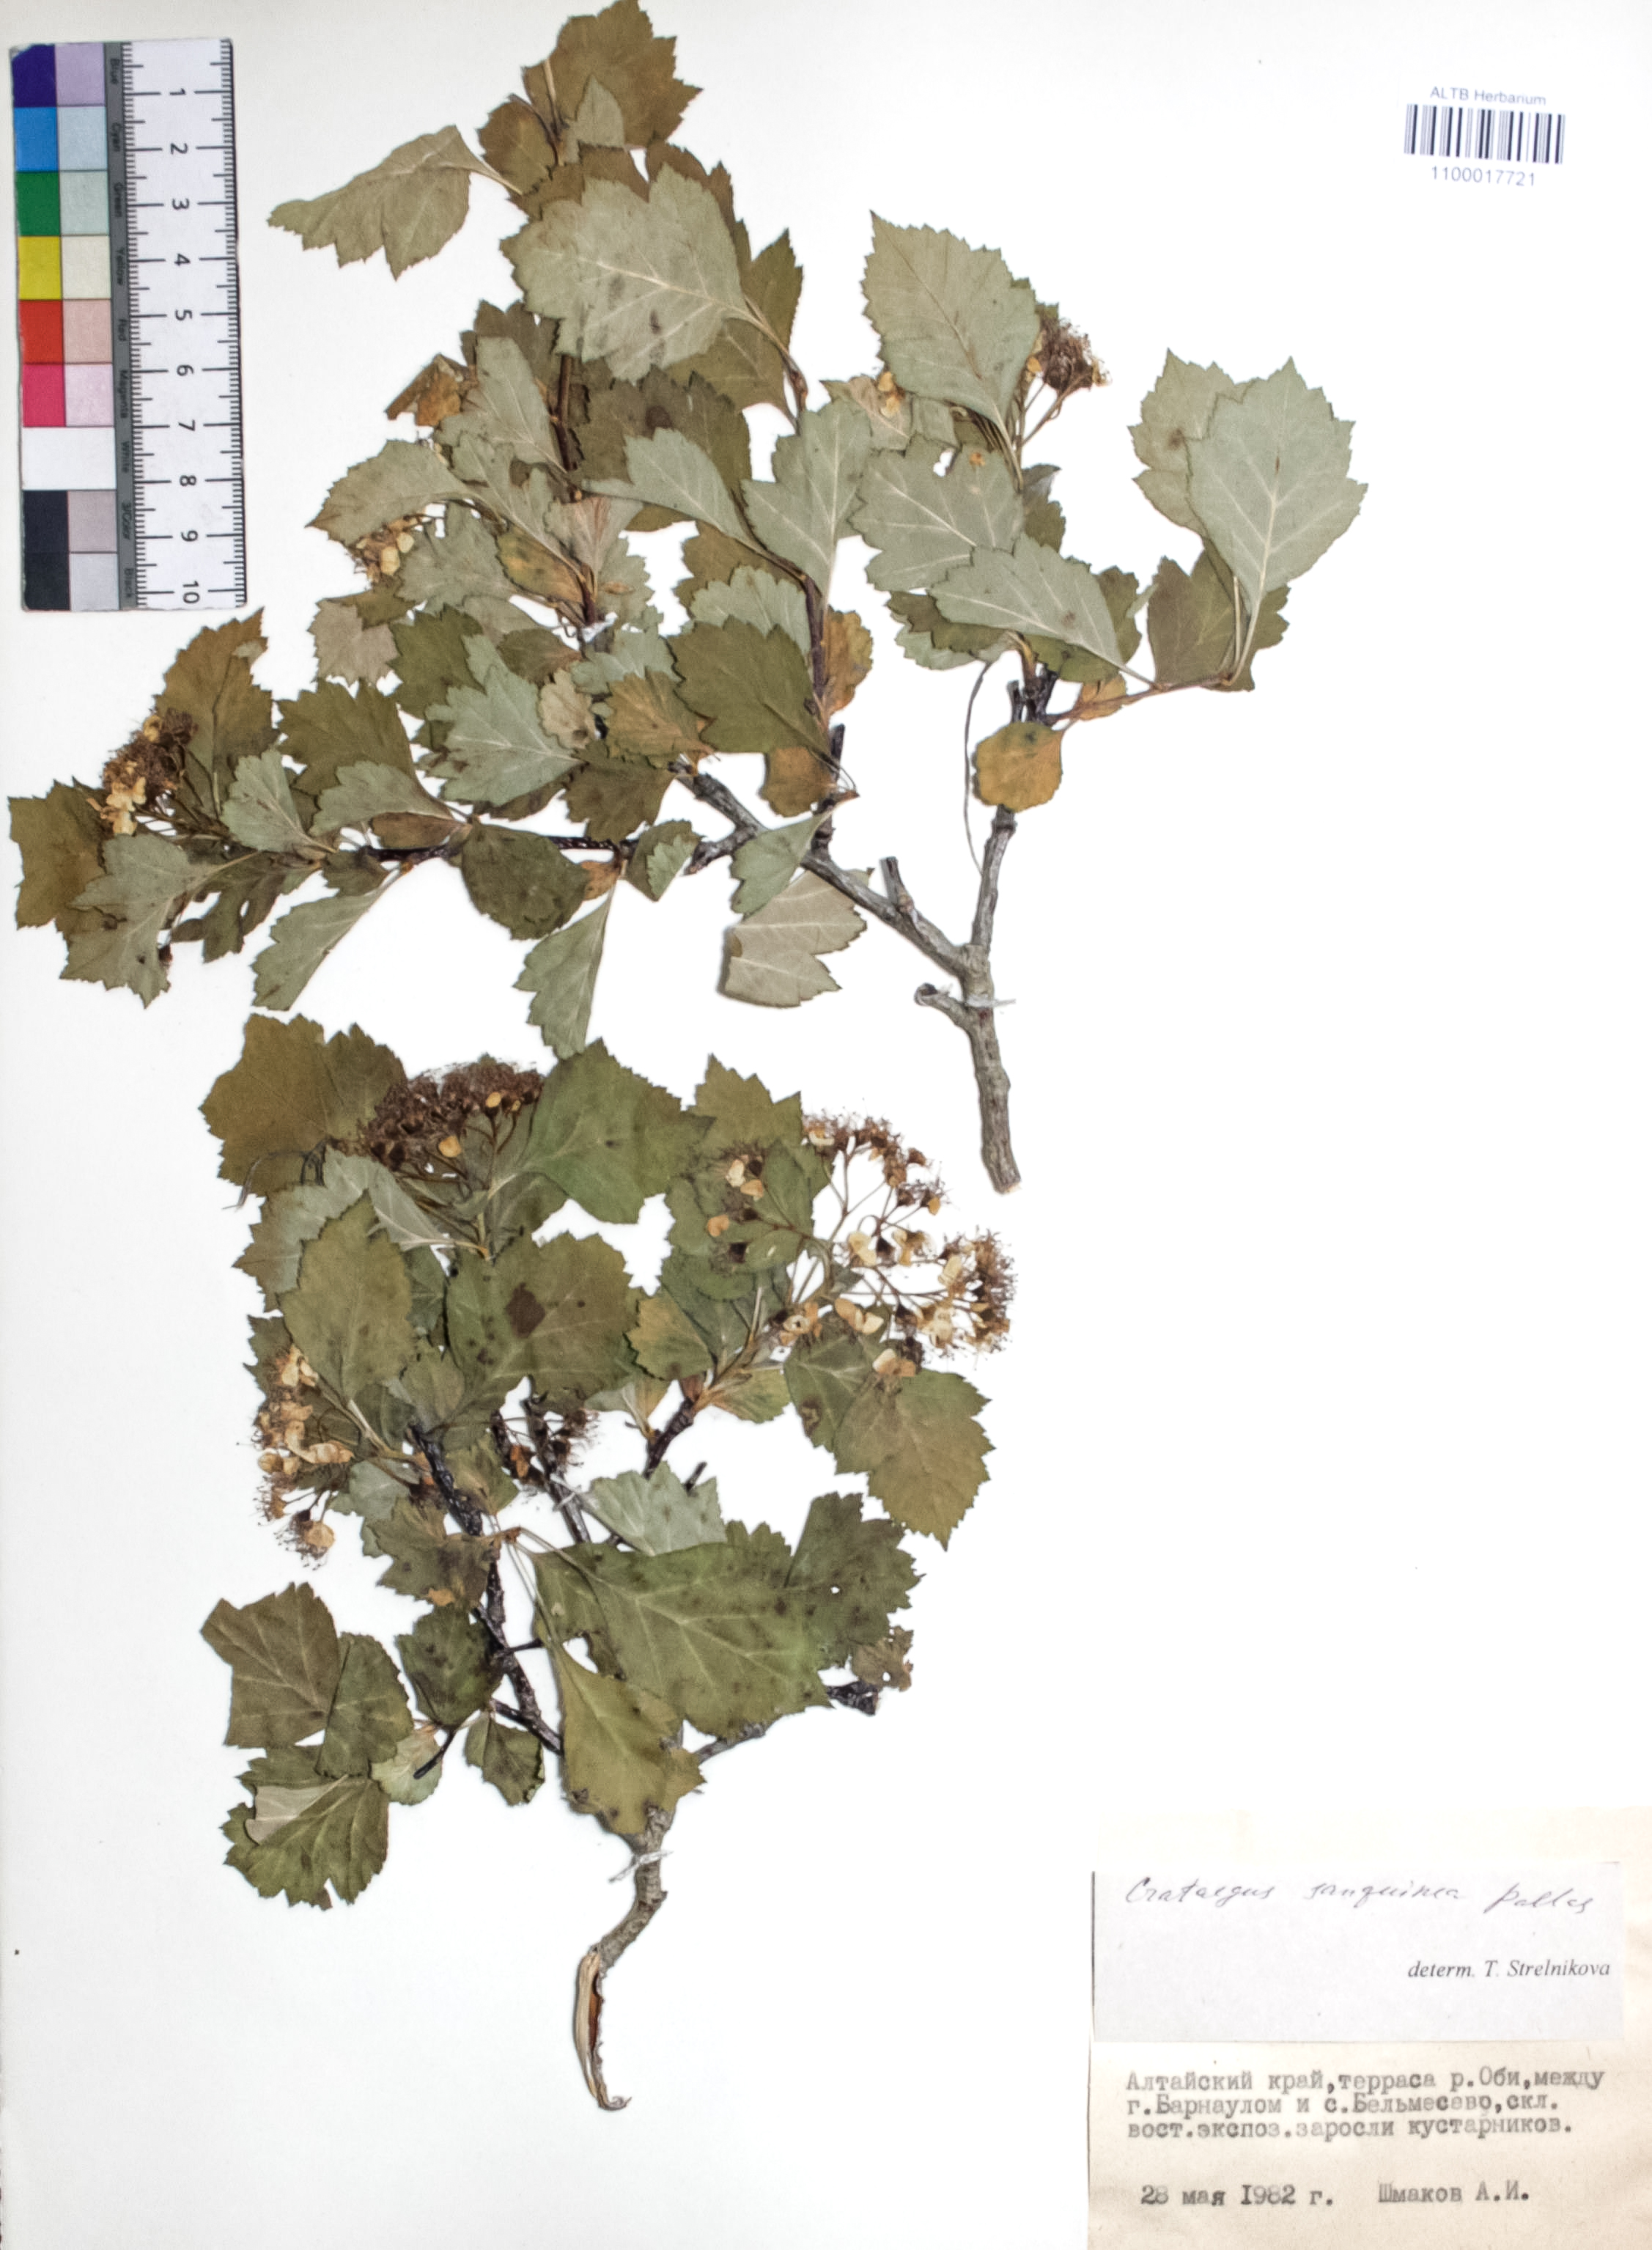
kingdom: Plantae
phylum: Tracheophyta
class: Magnoliopsida
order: Rosales
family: Rosaceae
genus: Crataegus
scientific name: Crataegus sanguinea
